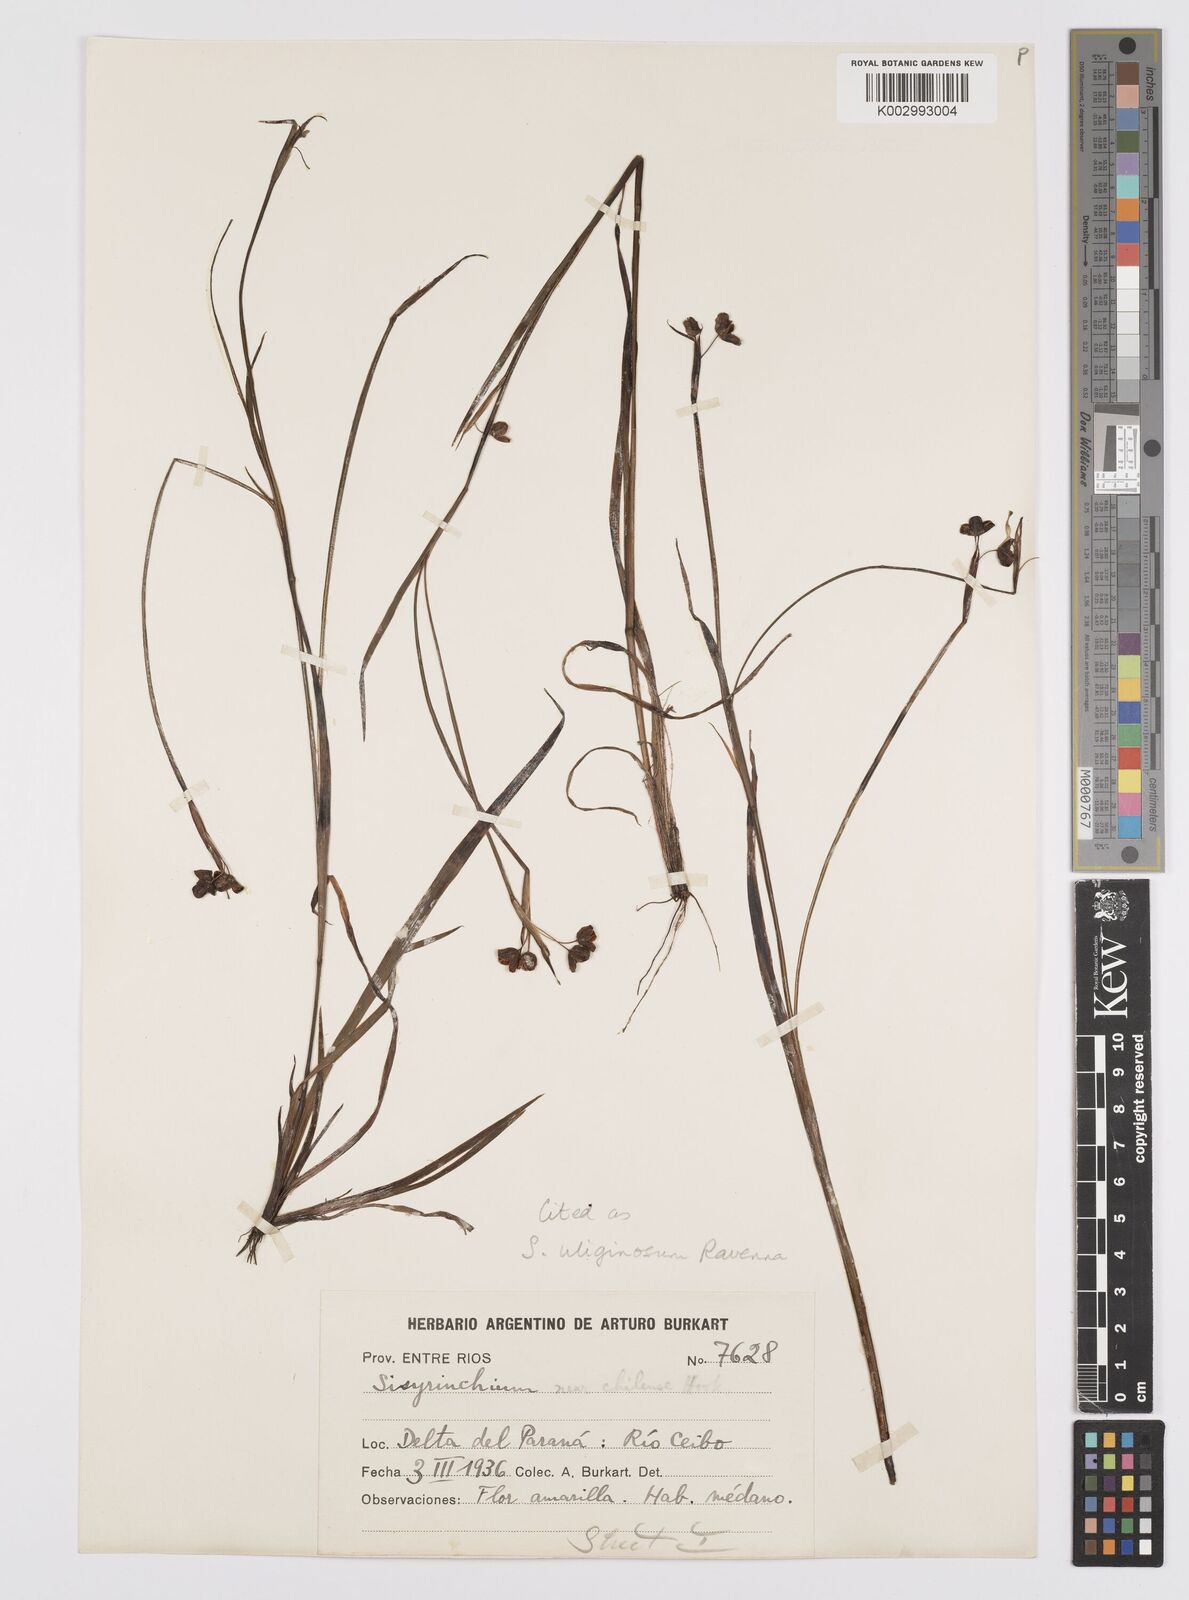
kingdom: Plantae
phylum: Tracheophyta
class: Liliopsida
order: Asparagales
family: Iridaceae
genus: Sisyrinchium
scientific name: Sisyrinchium uliginosum
